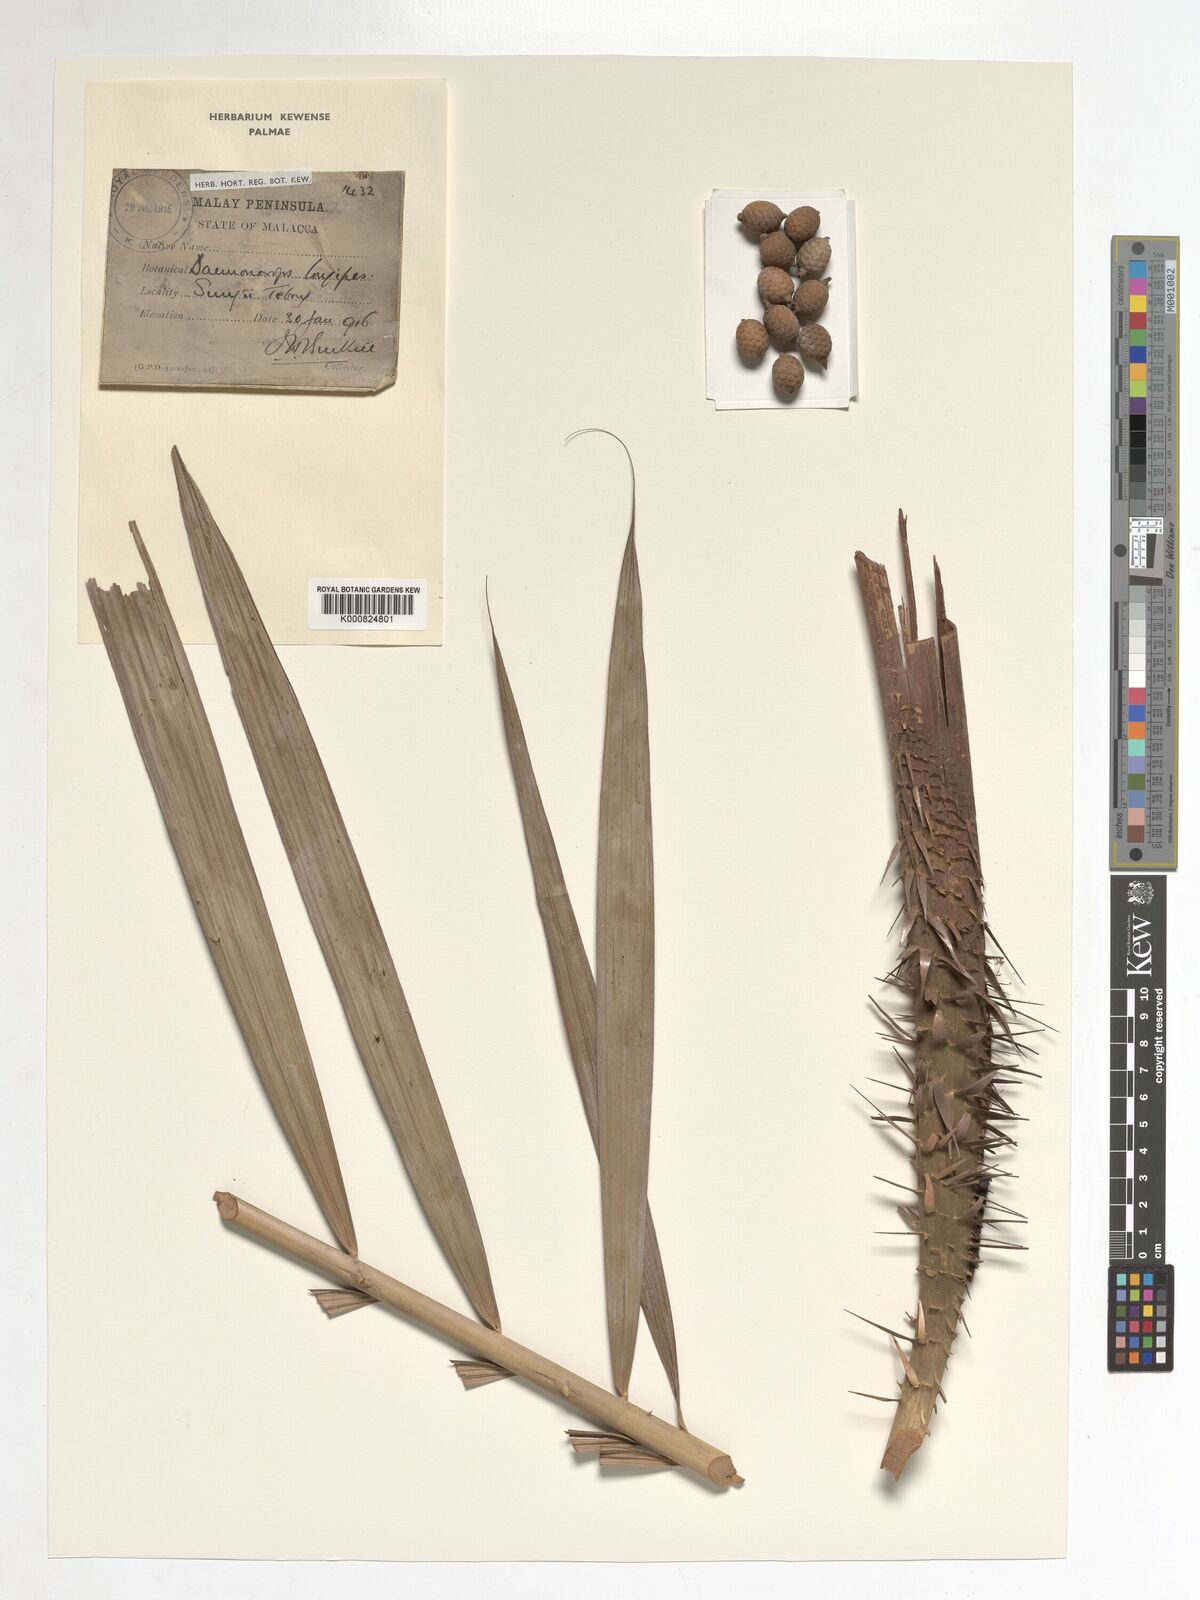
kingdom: Plantae
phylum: Tracheophyta
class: Liliopsida
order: Arecales
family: Arecaceae
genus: Calamus
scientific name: Calamus longipes
